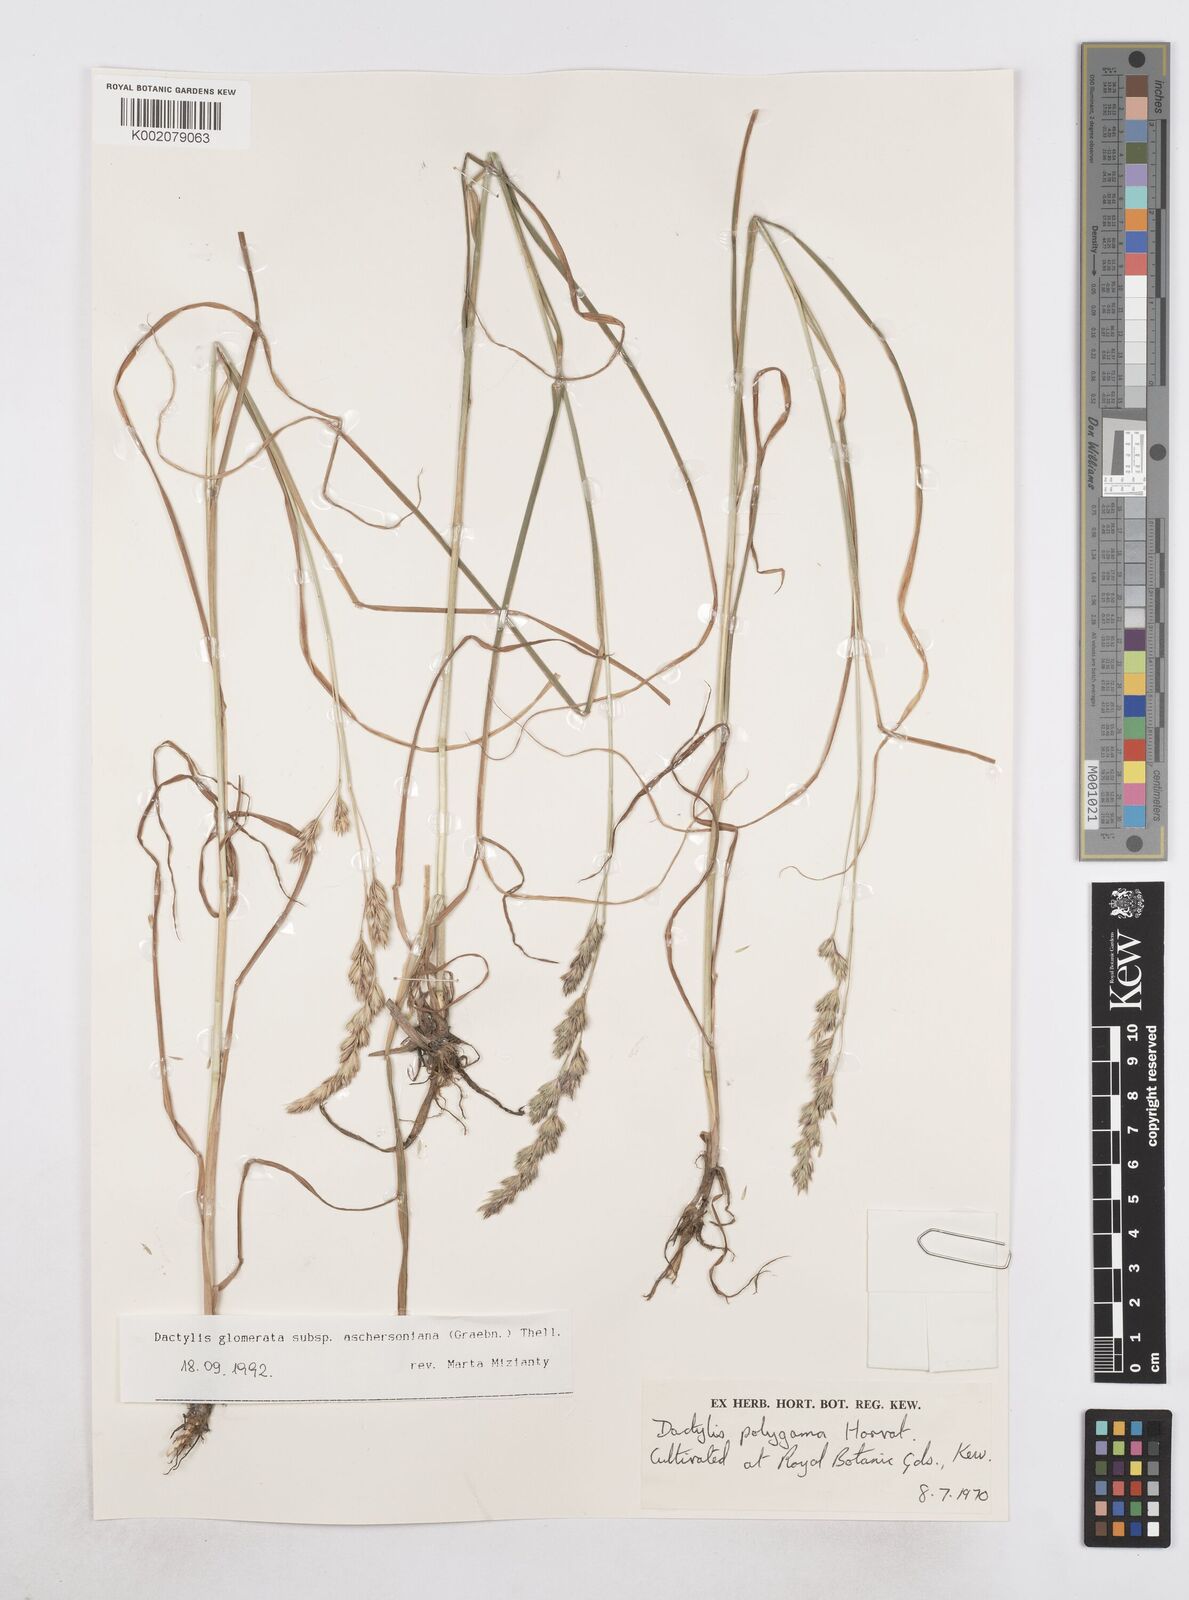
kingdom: Plantae
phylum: Tracheophyta
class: Liliopsida
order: Poales
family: Poaceae
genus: Dactylis
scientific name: Dactylis glomerata
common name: Orchardgrass
